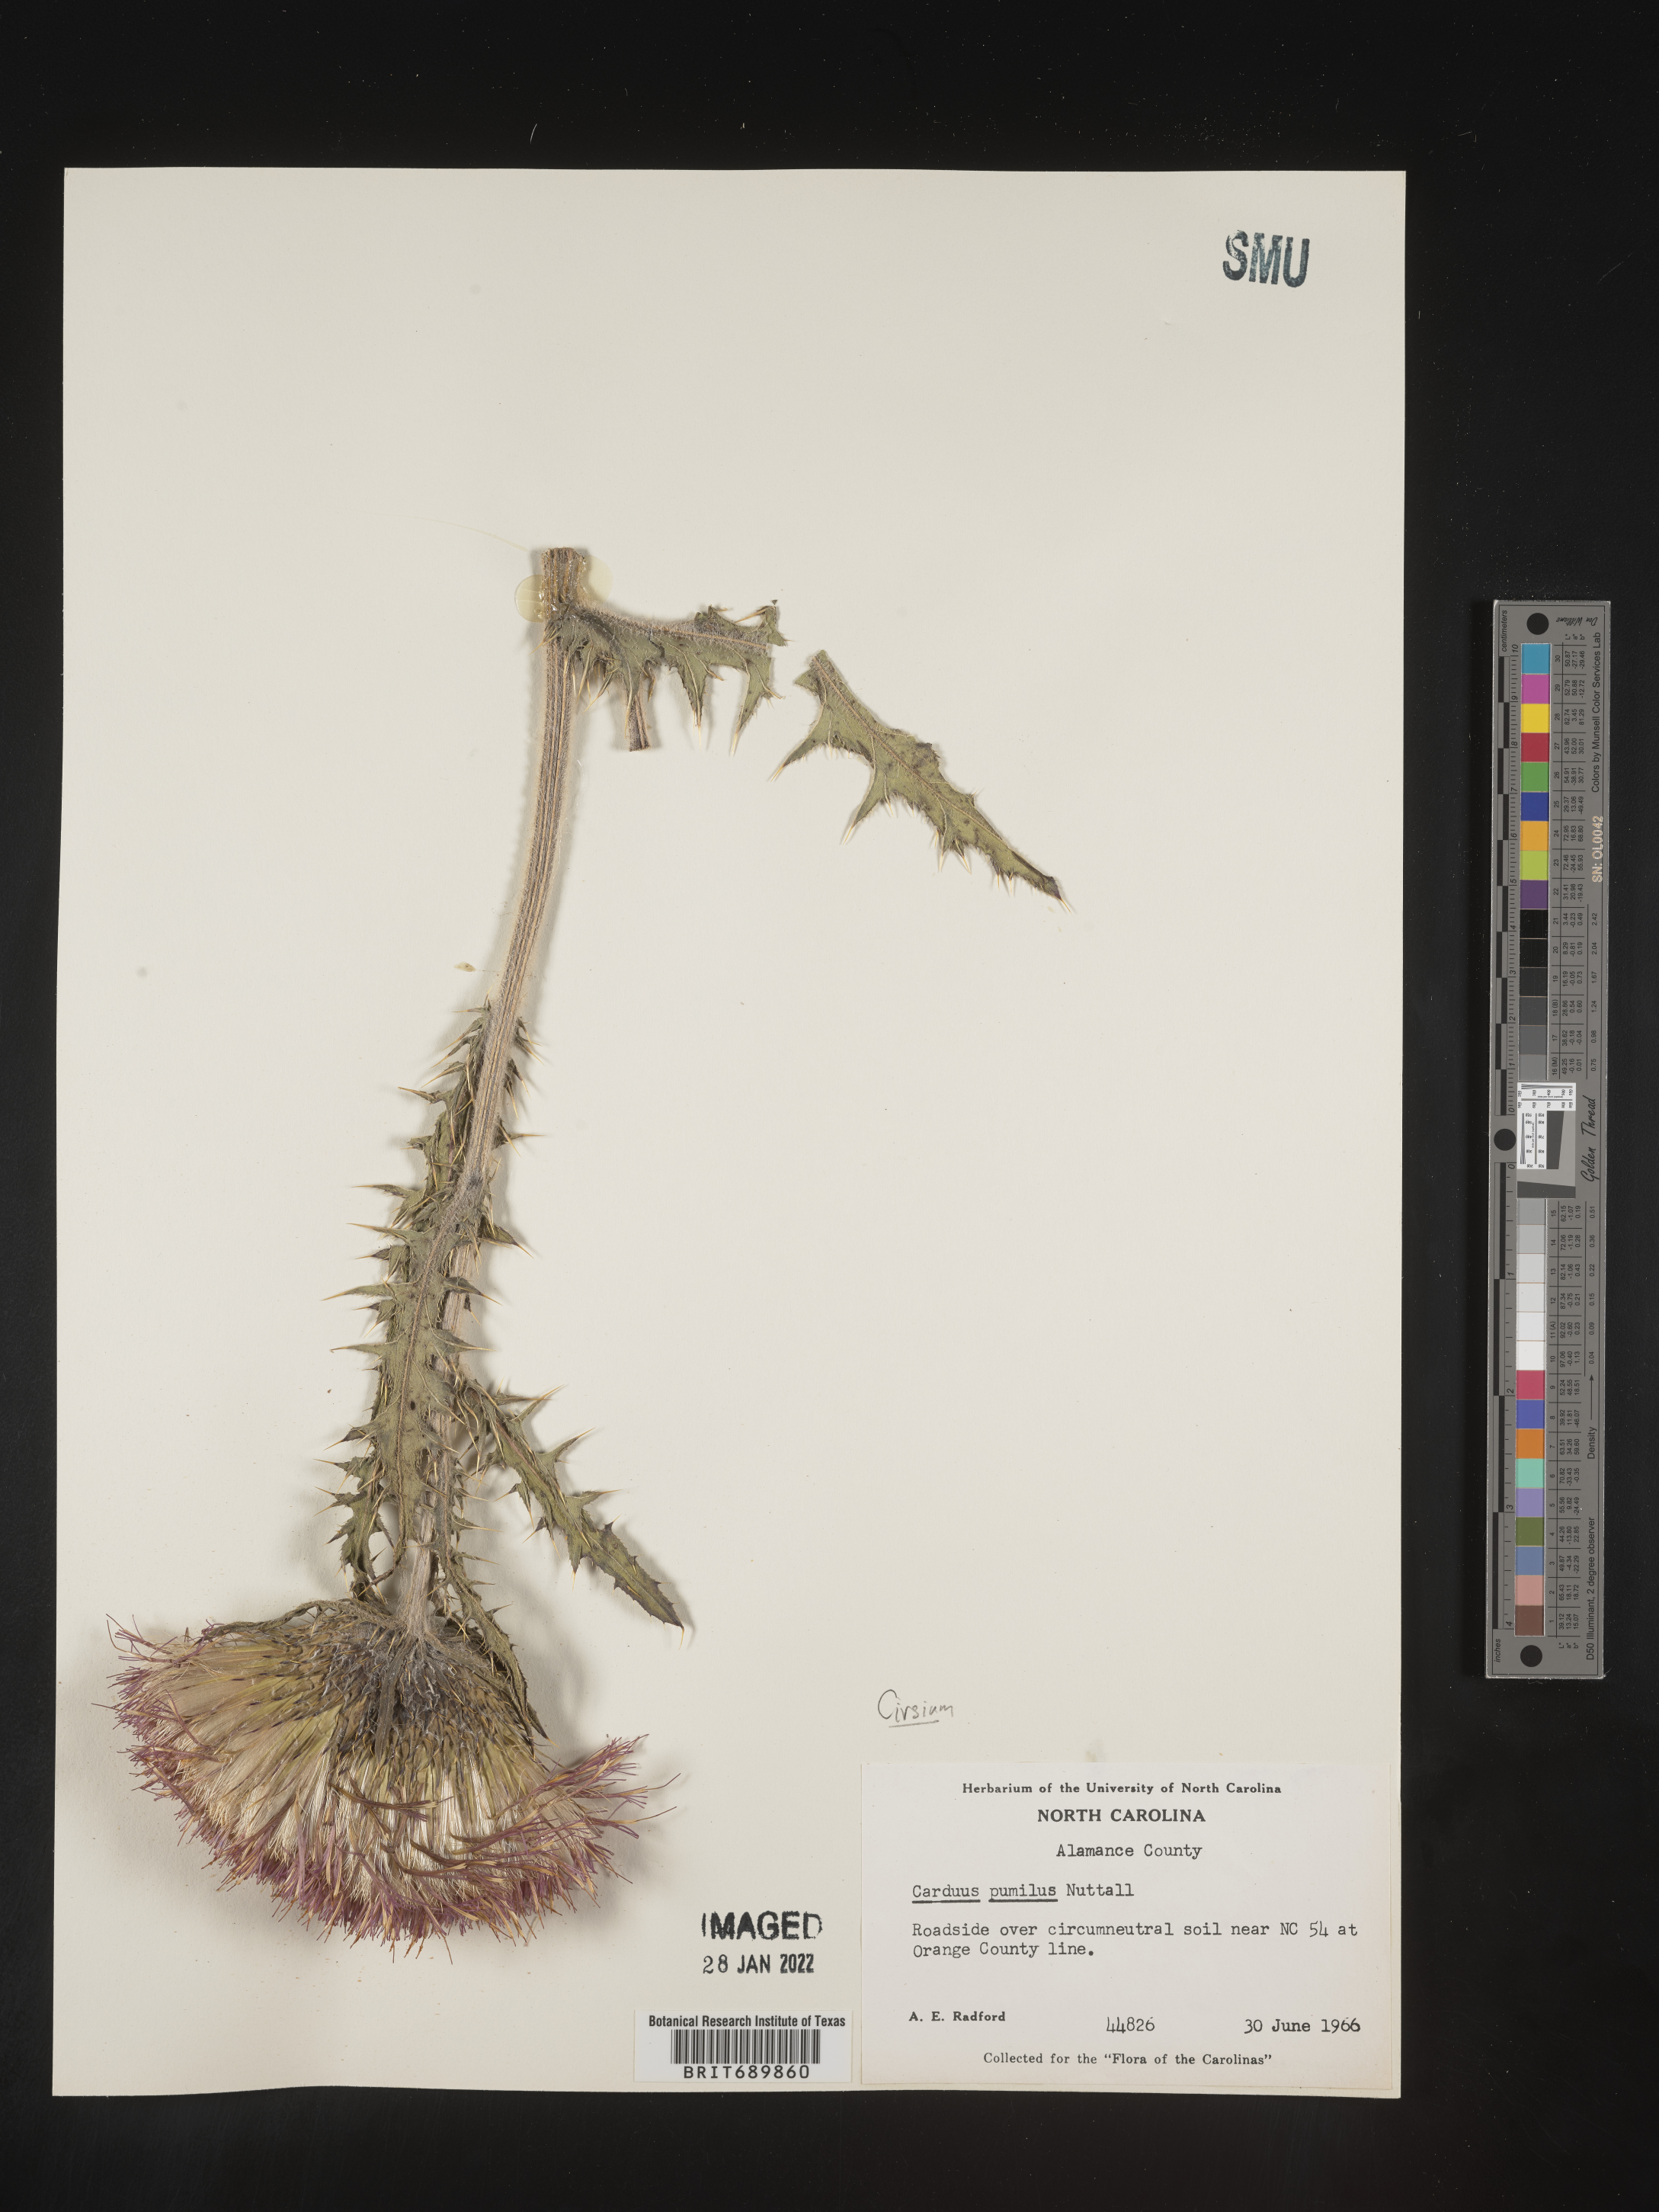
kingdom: Plantae
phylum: Tracheophyta
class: Magnoliopsida
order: Asterales
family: Asteraceae
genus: Cirsium
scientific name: Cirsium pumilum
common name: Pasture thistle
